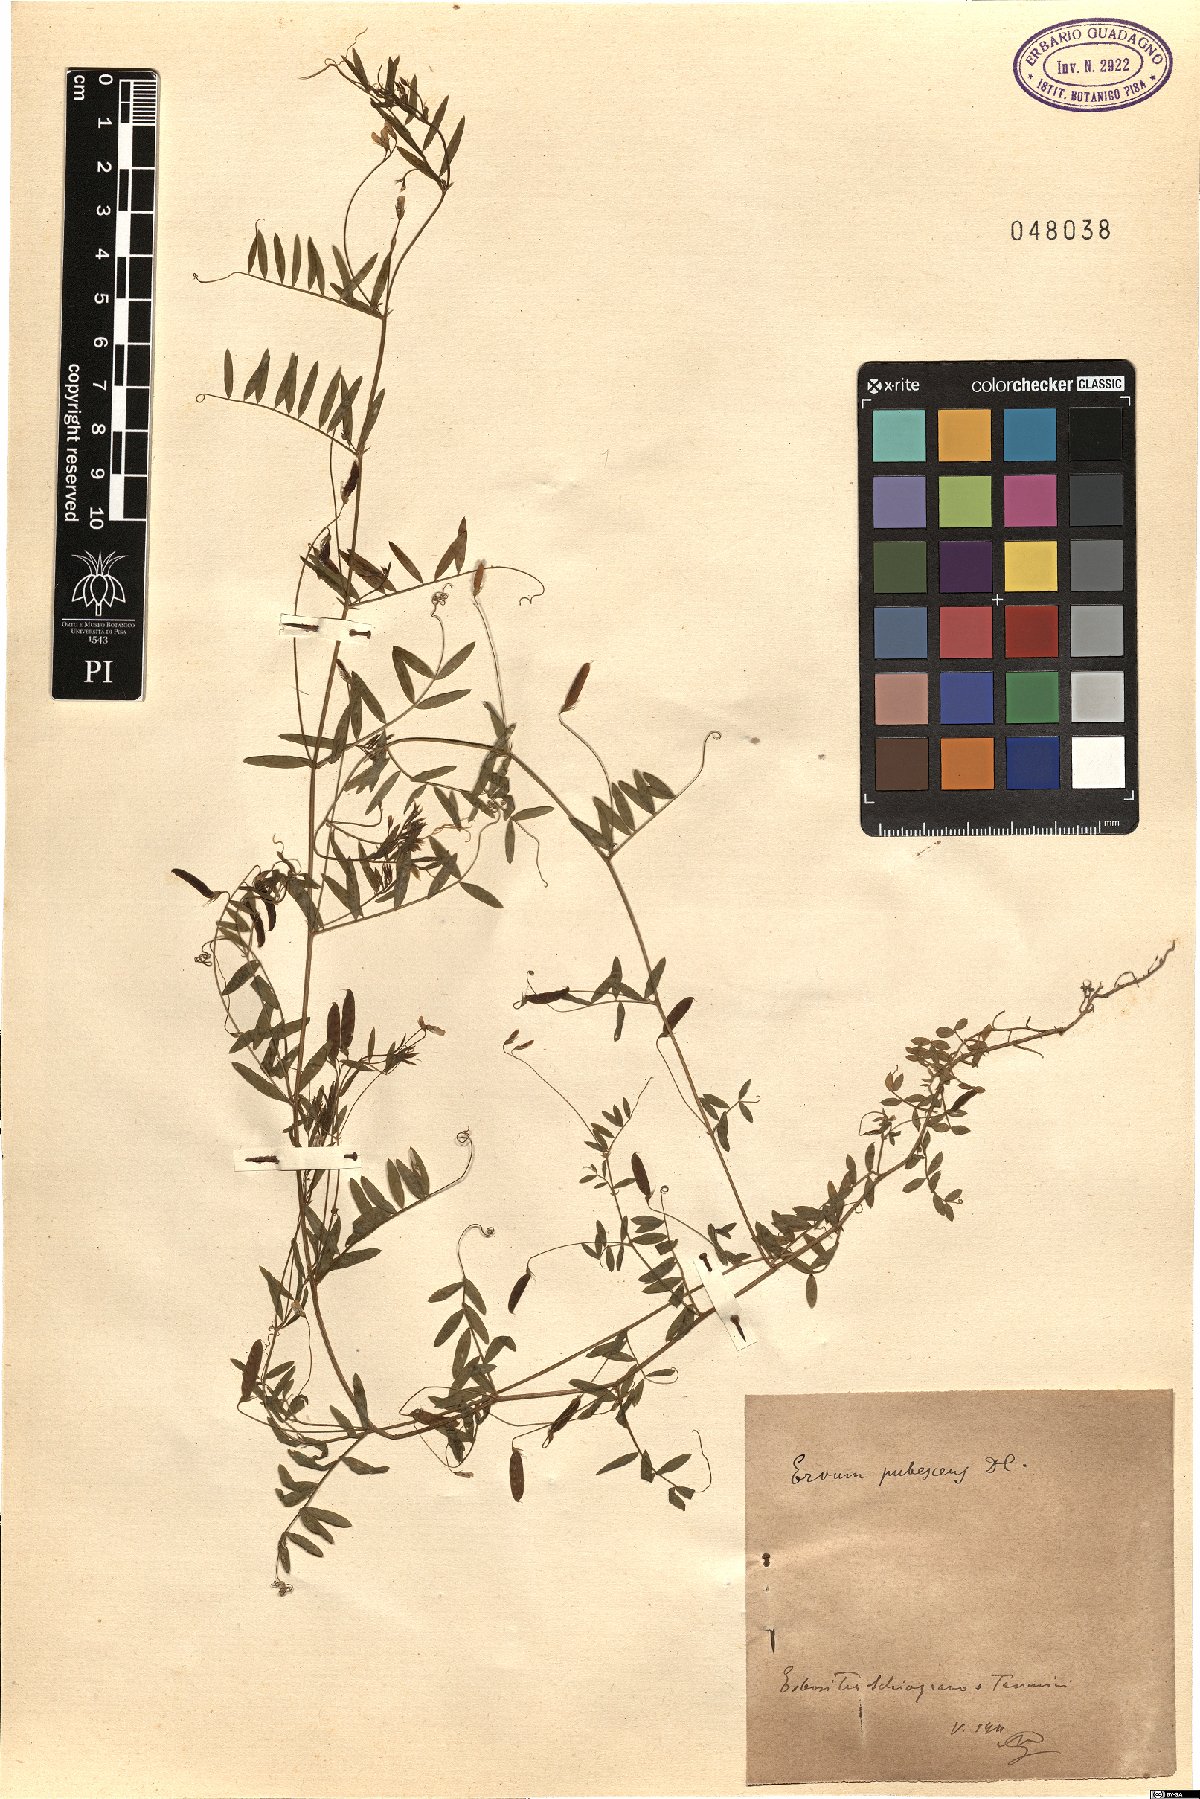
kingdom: Plantae
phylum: Tracheophyta
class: Magnoliopsida
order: Fabales
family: Fabaceae
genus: Vicia
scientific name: Vicia pubescens
